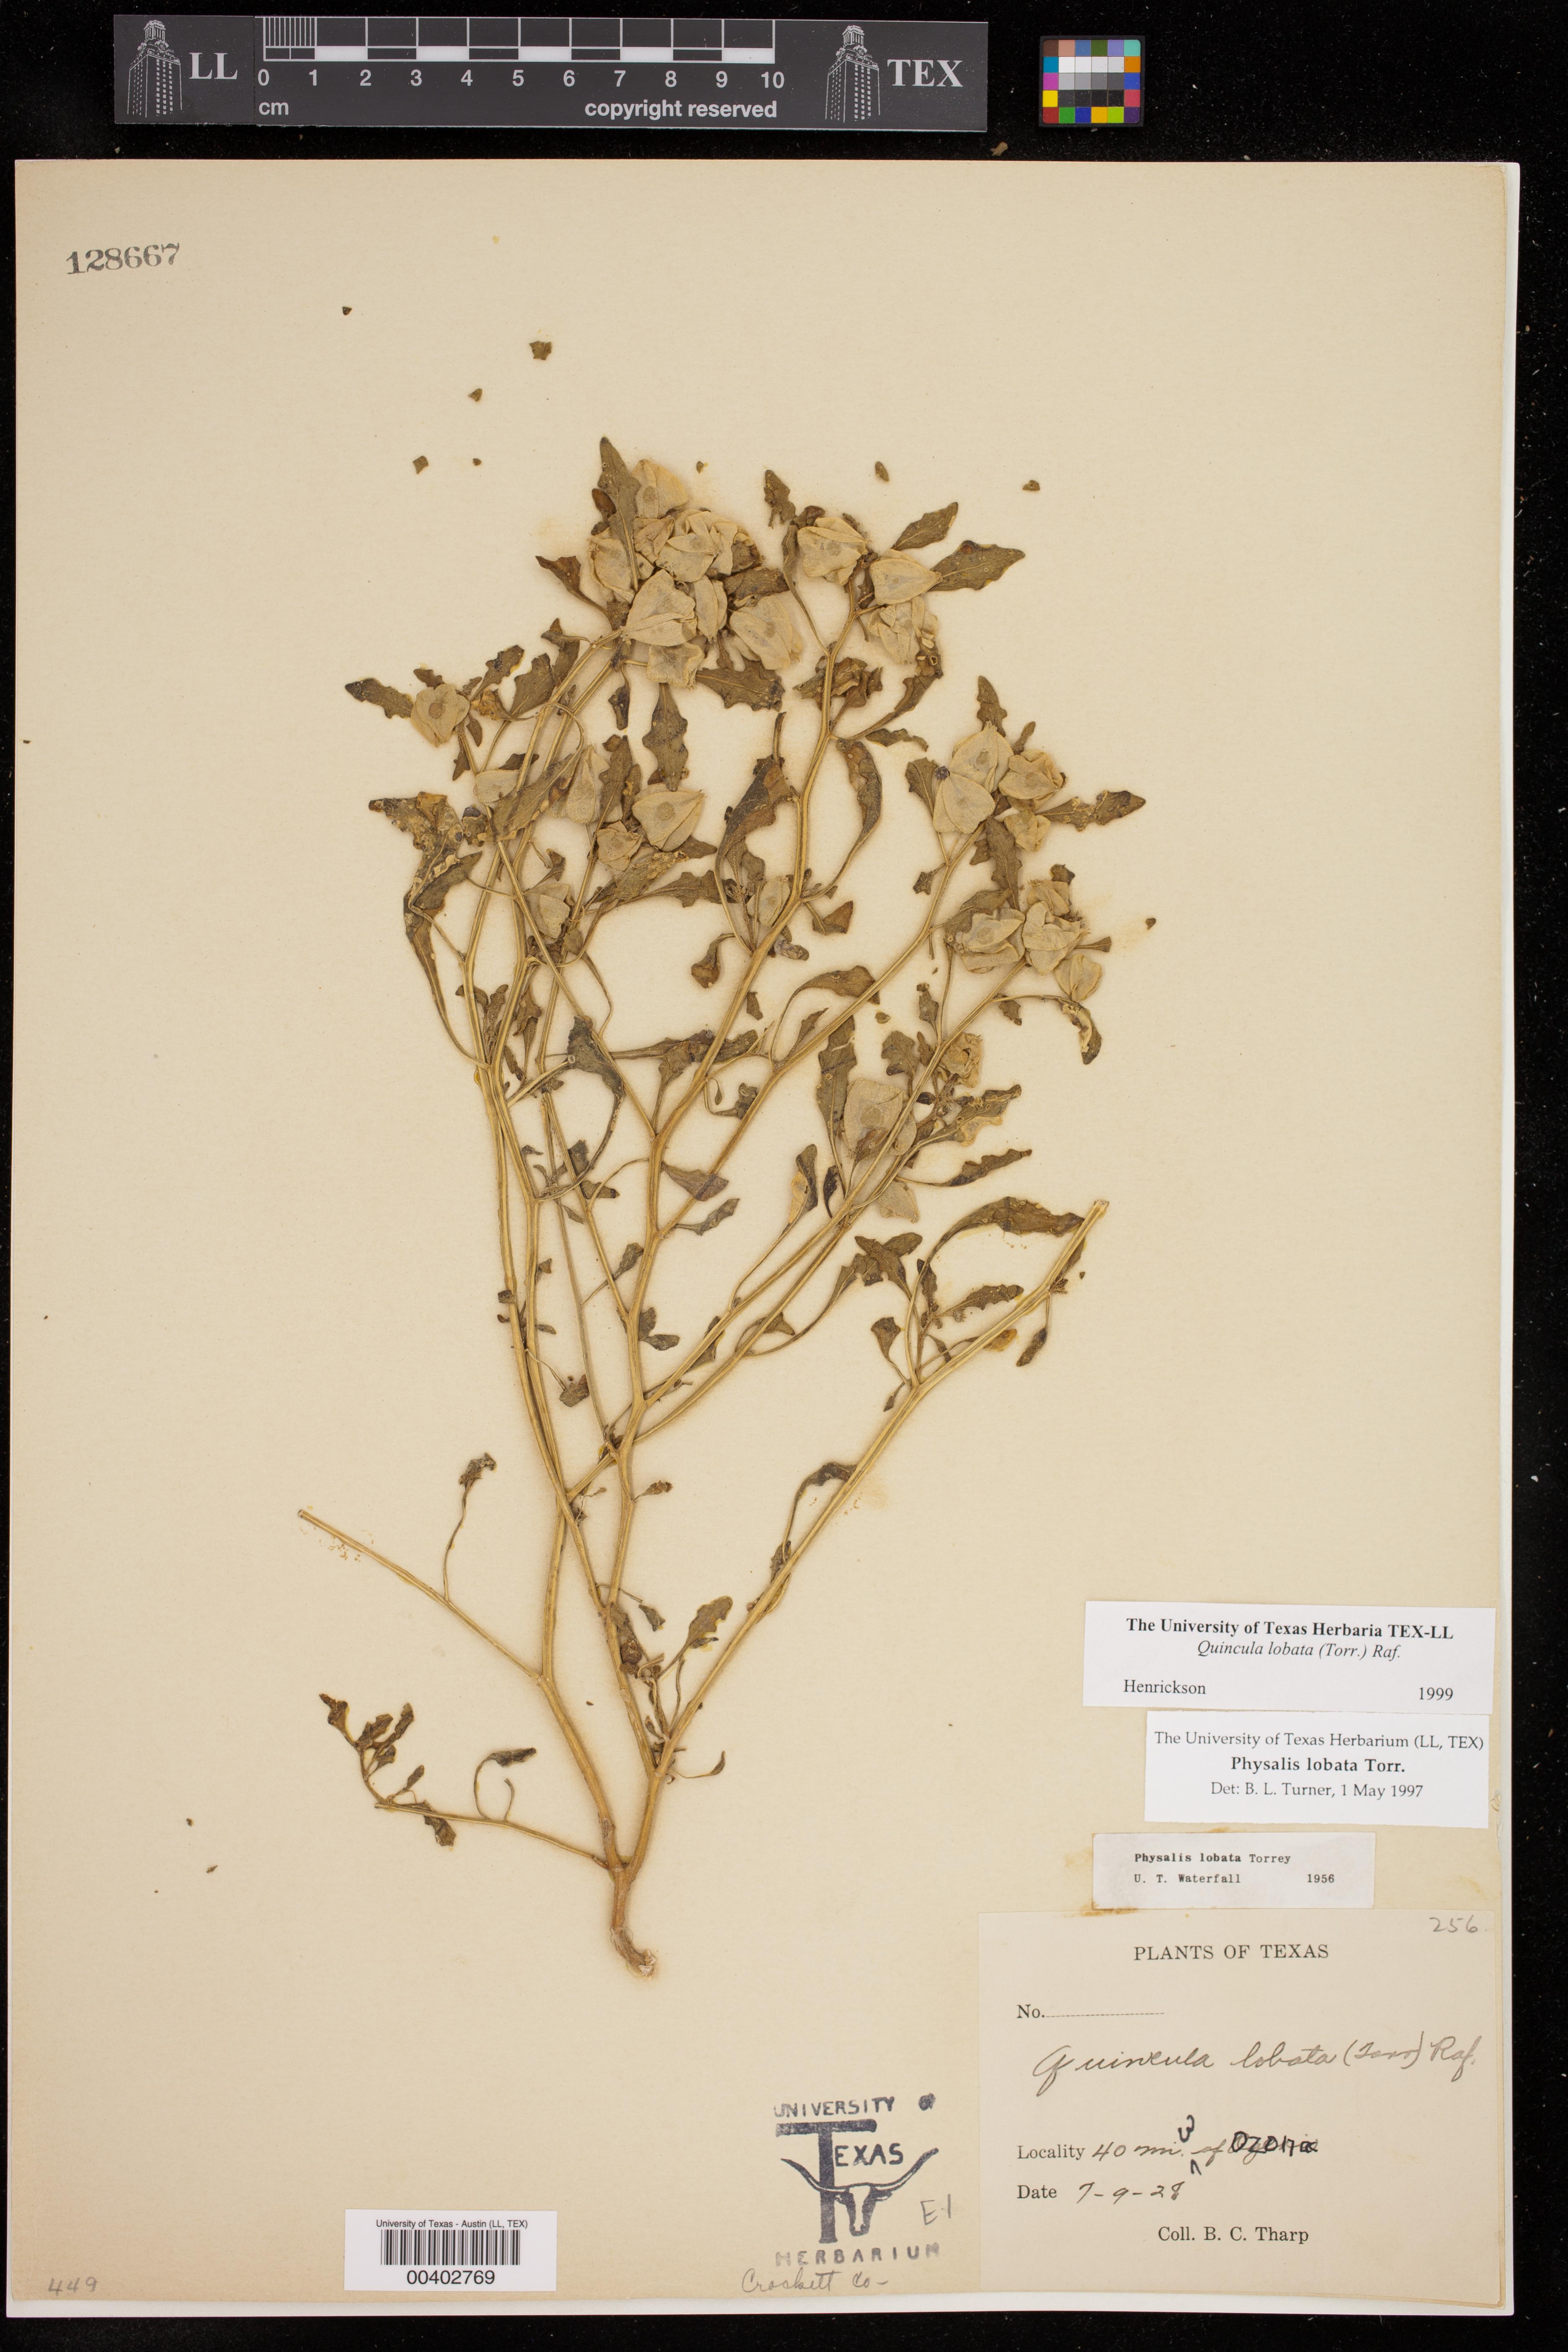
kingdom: Plantae
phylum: Tracheophyta
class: Magnoliopsida
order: Solanales
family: Solanaceae
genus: Quincula
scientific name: Quincula lobata
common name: Purple-ground-cherry
